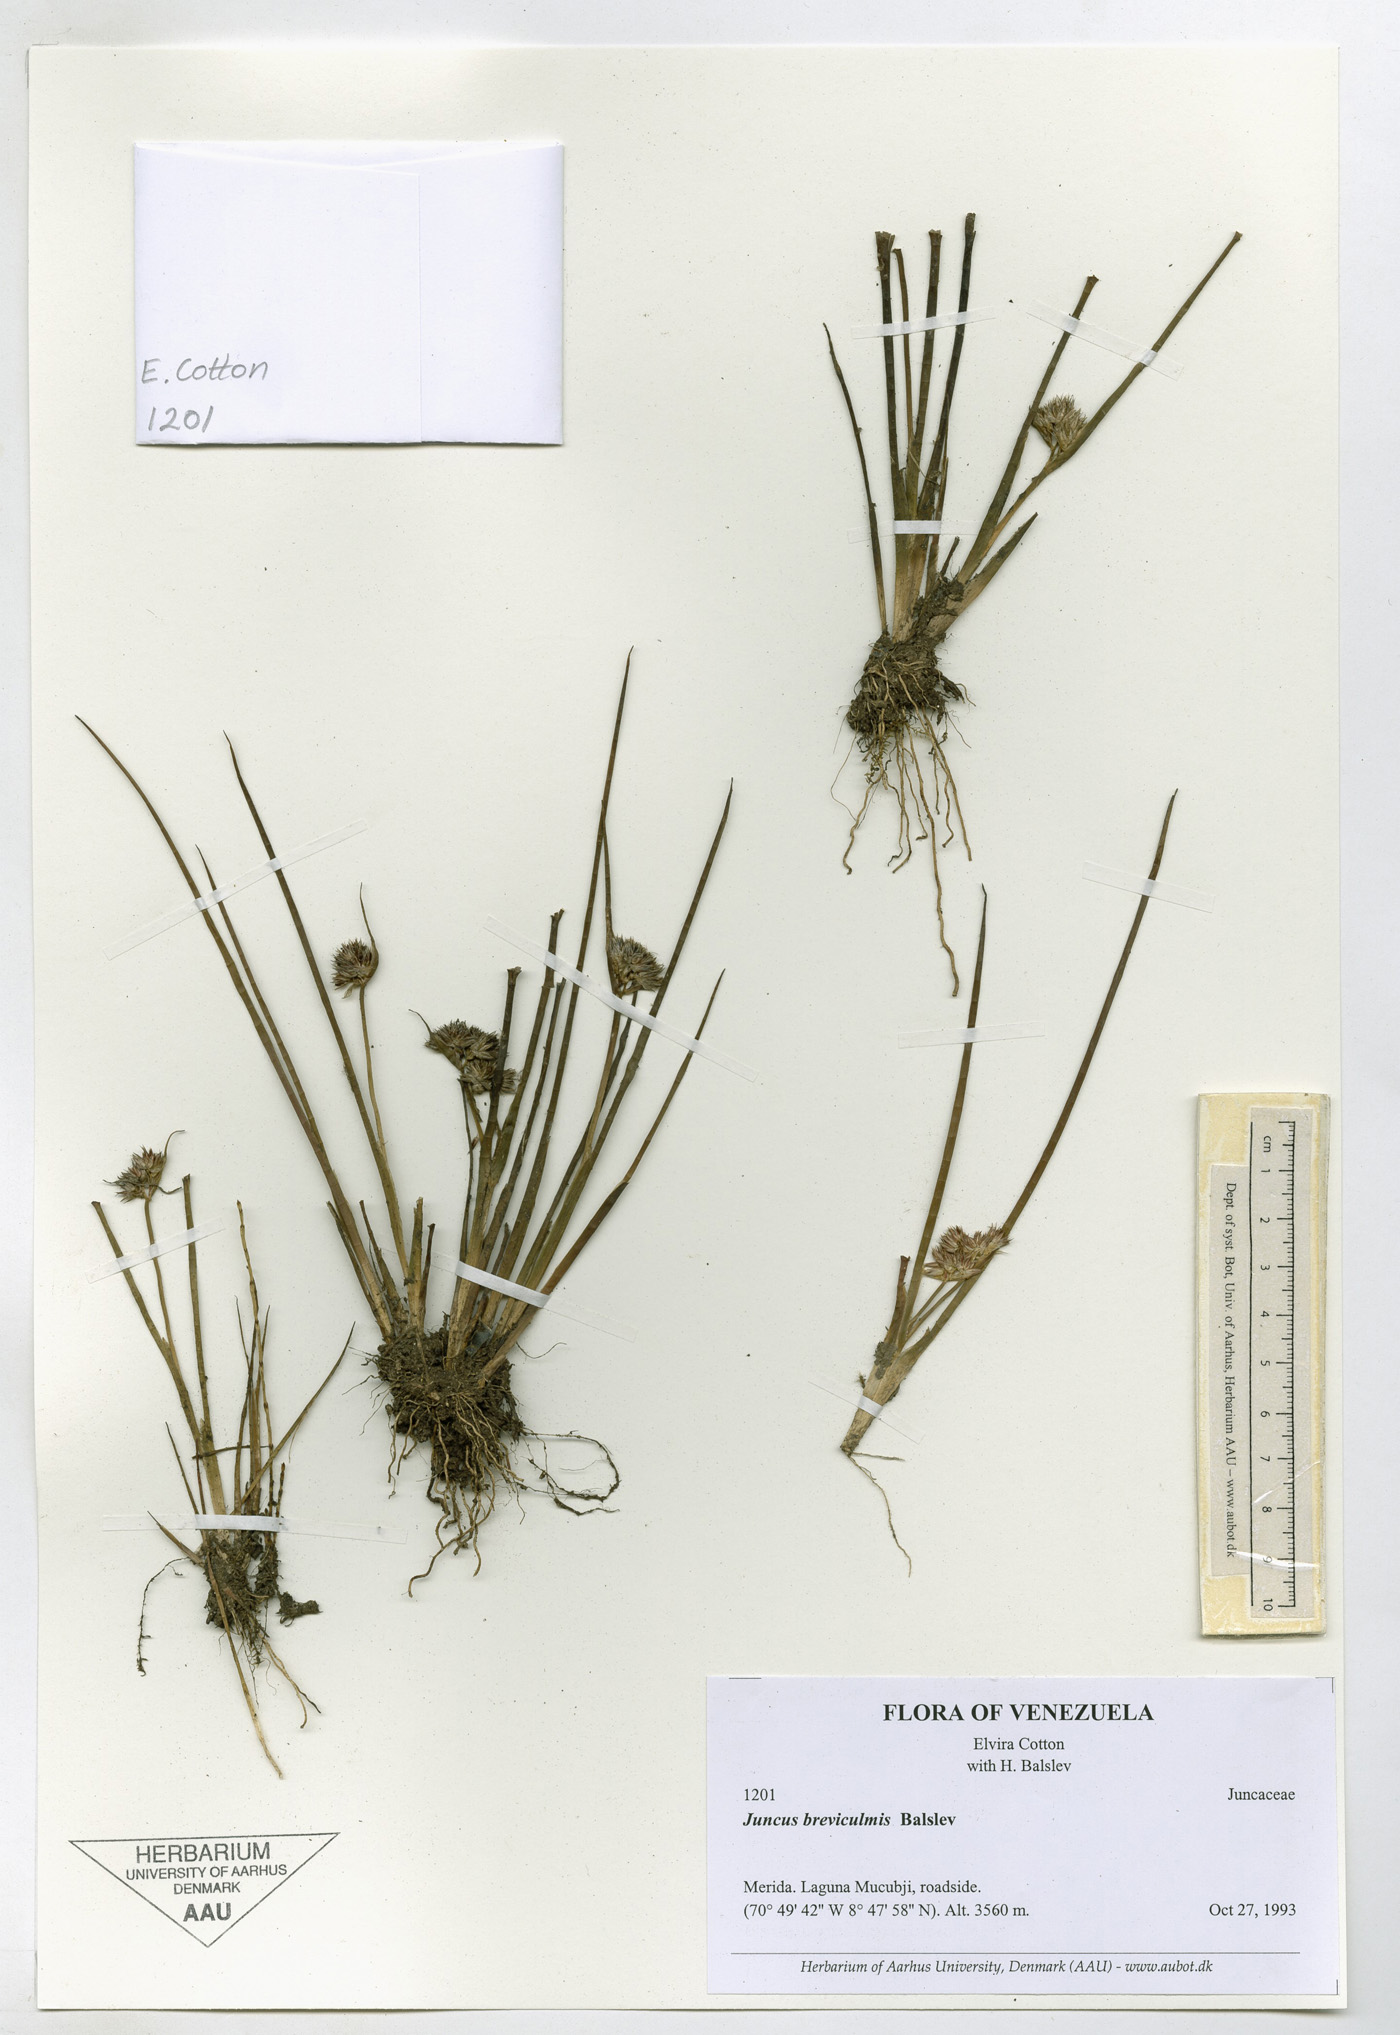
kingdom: Plantae
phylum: Tracheophyta
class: Liliopsida
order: Poales
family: Juncaceae
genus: Juncus
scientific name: Juncus breviculmis
